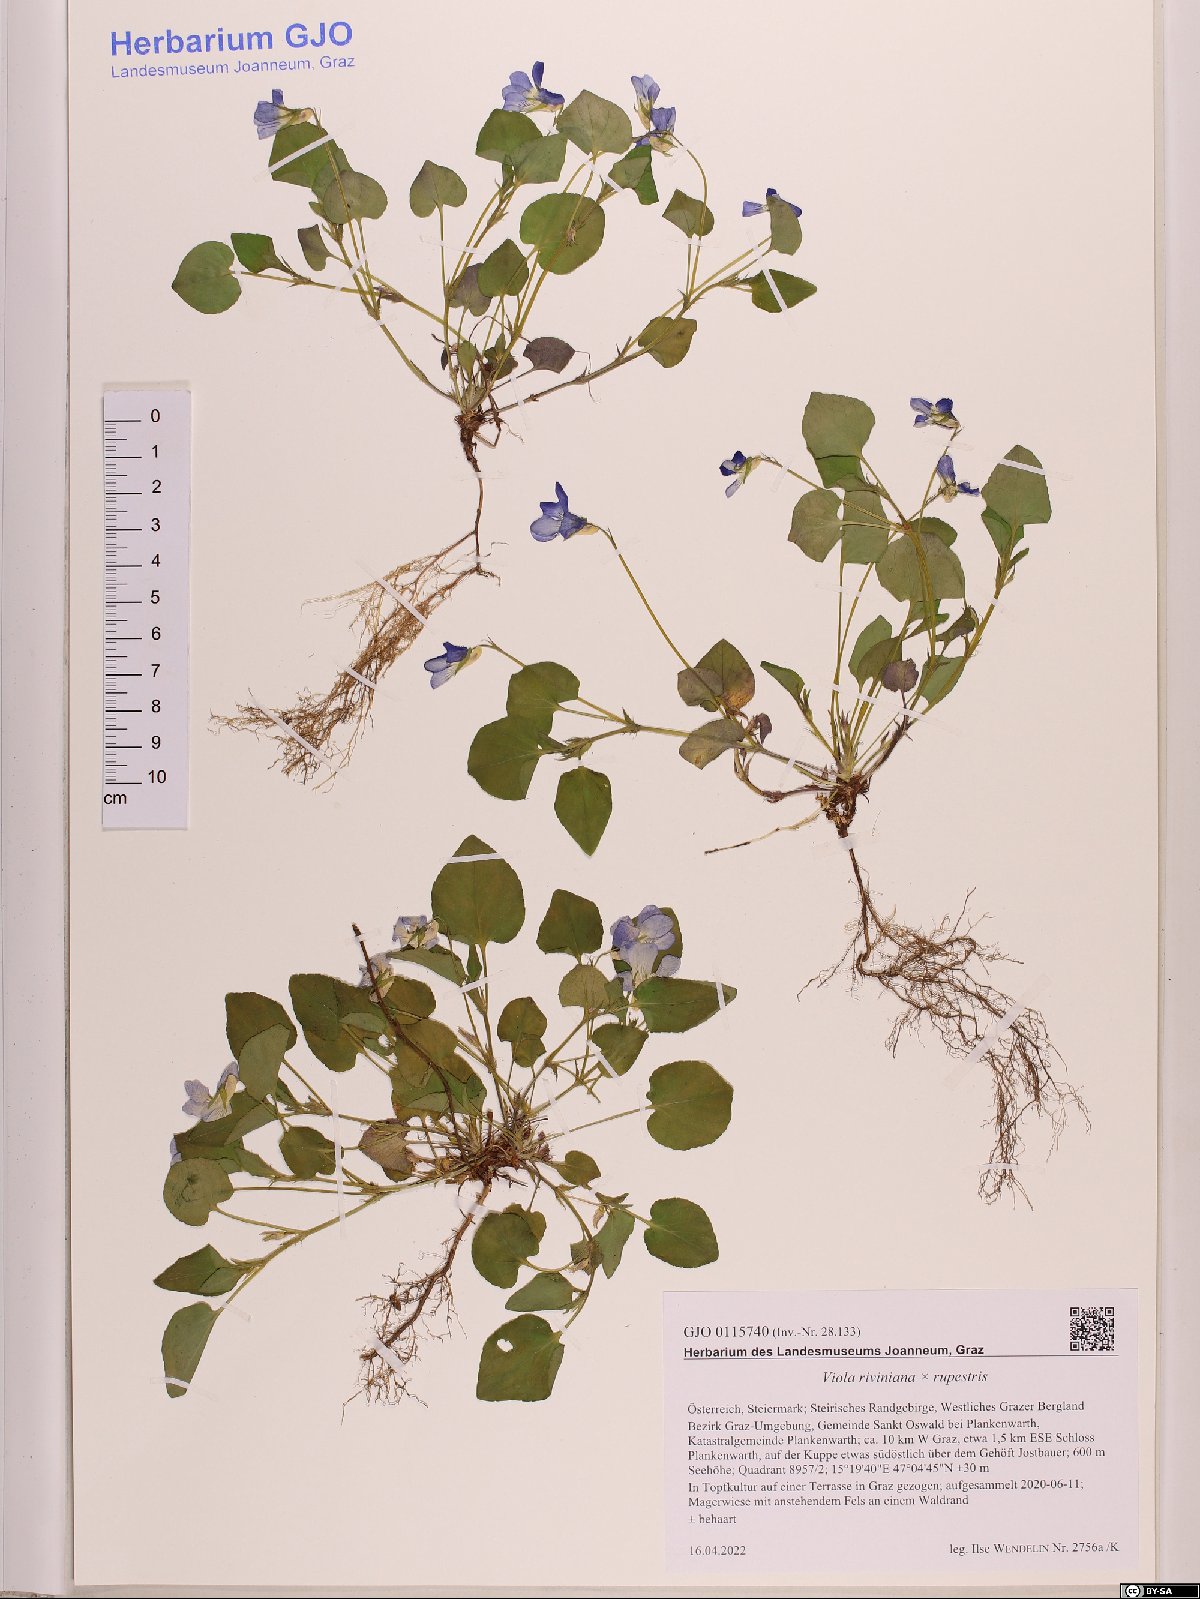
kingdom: Plantae
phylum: Tracheophyta
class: Magnoliopsida
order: Malpighiales
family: Violaceae
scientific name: Violaceae
